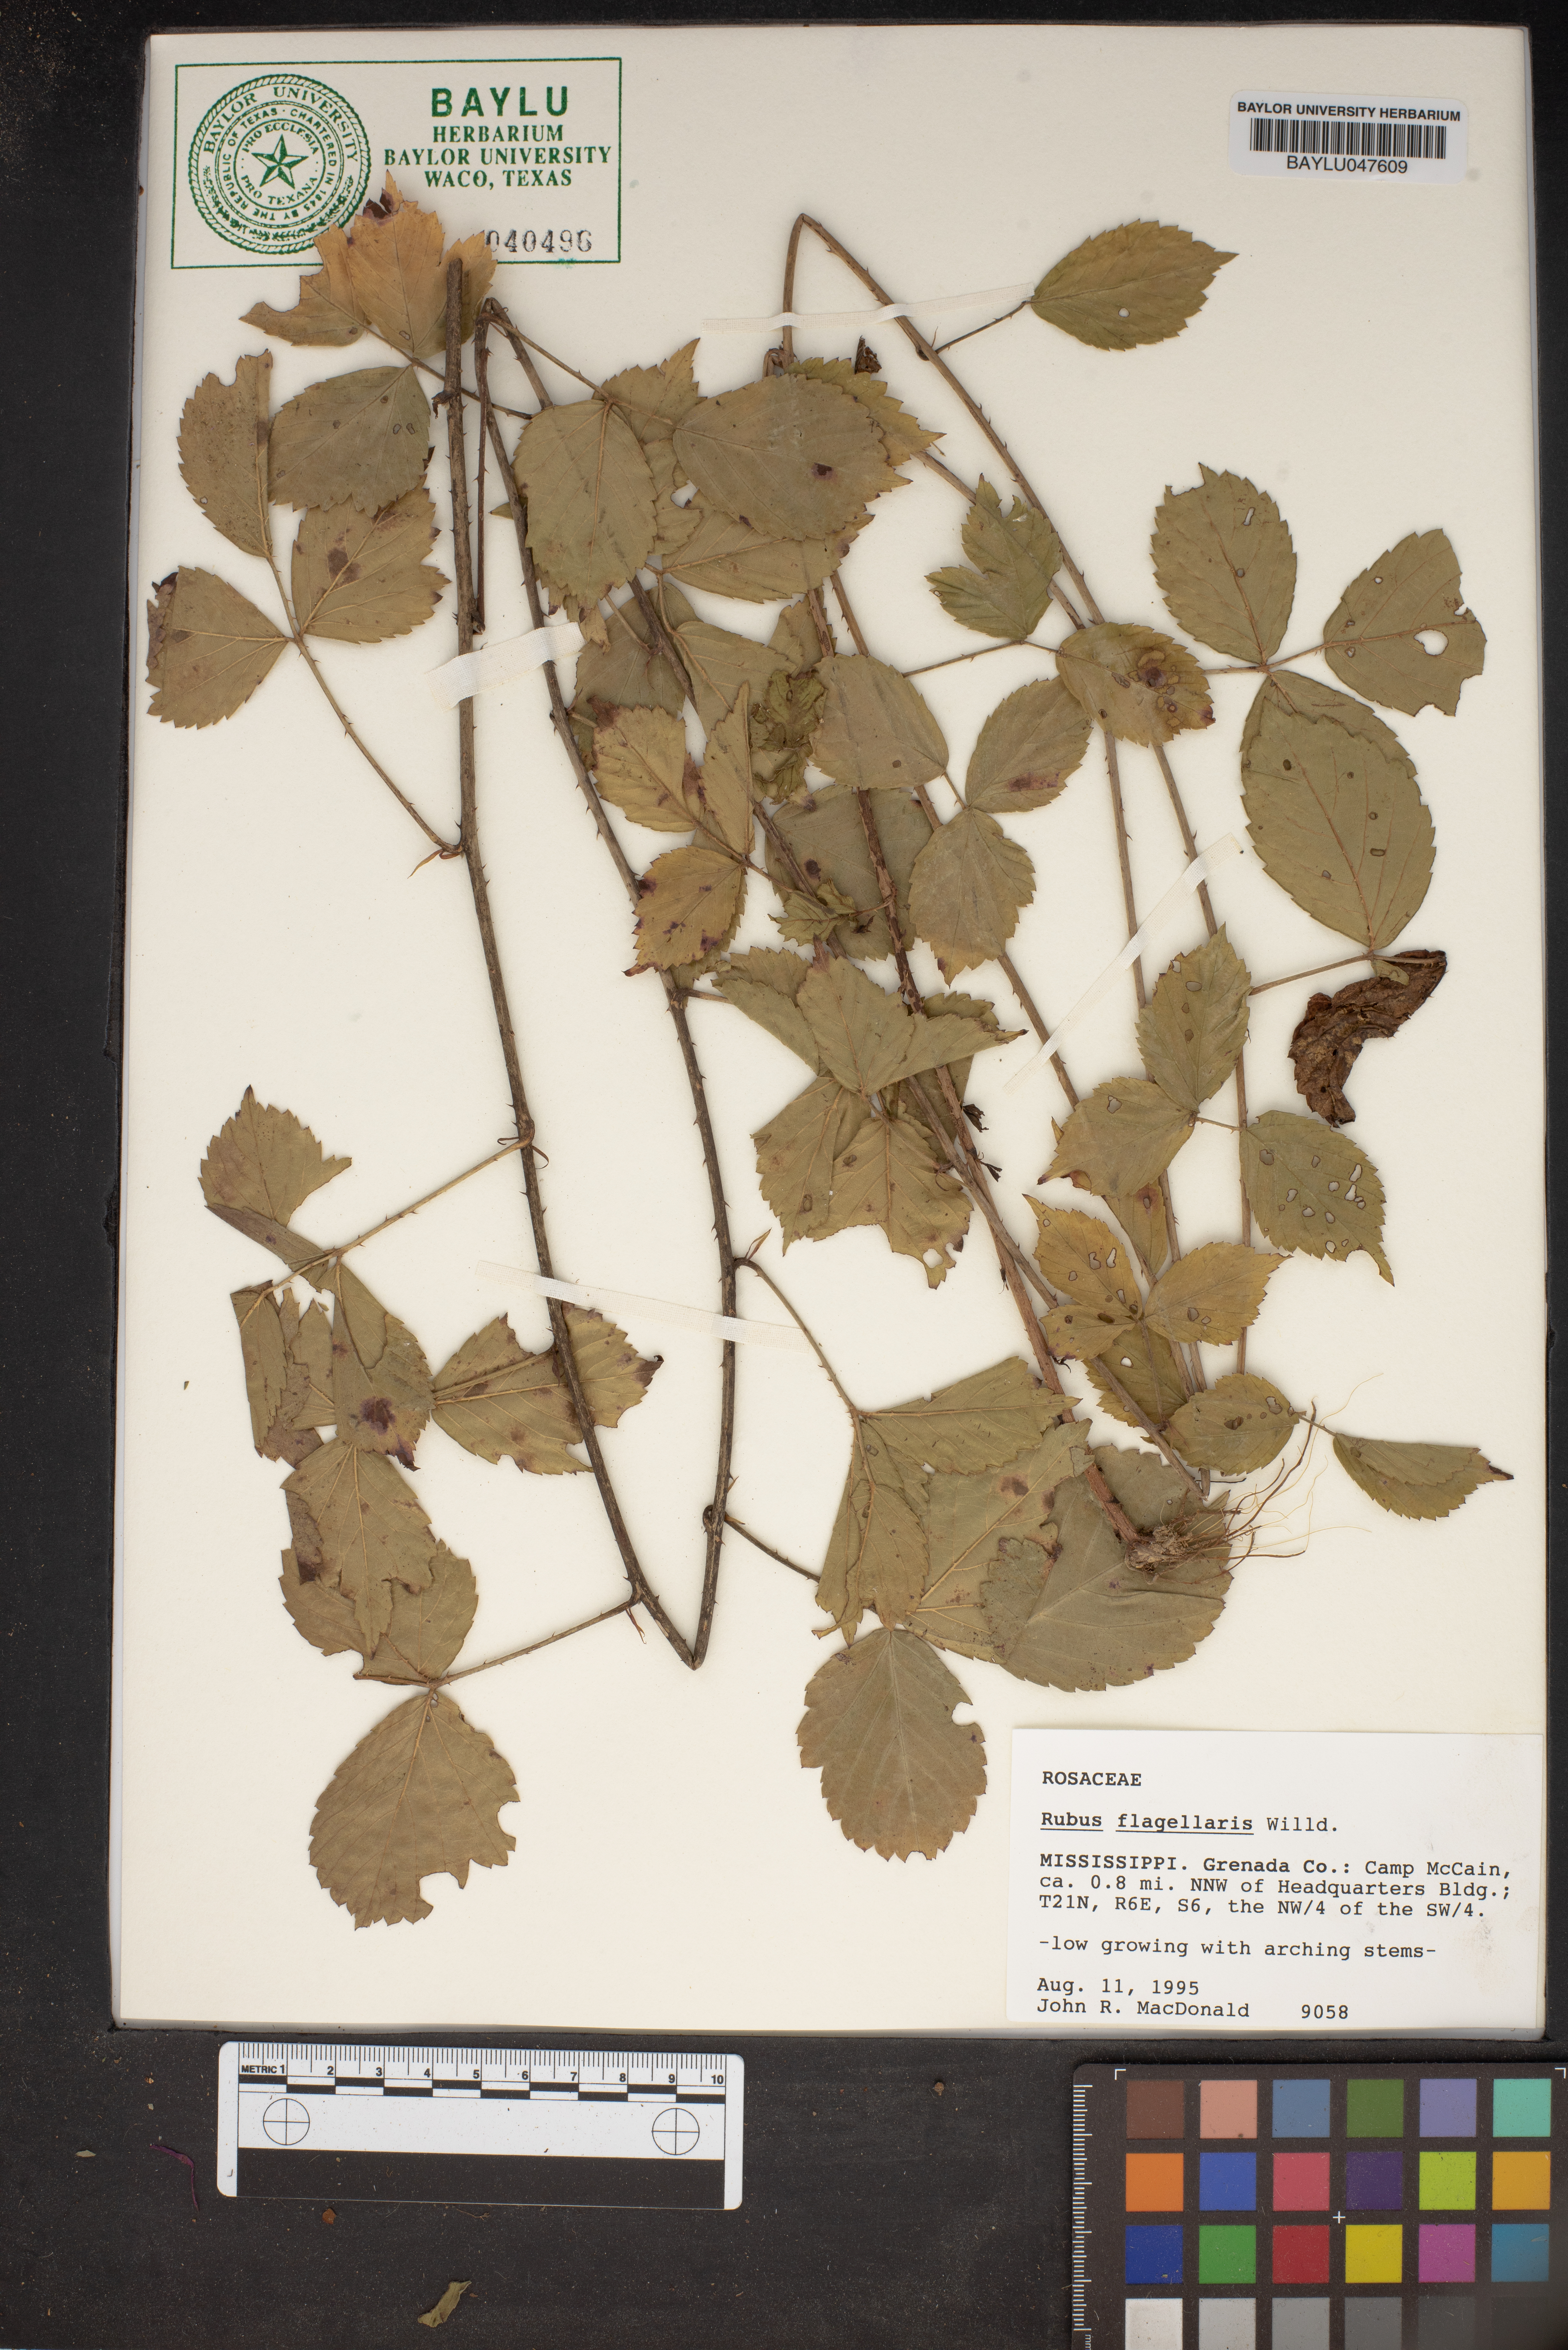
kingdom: Plantae
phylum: Tracheophyta
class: Magnoliopsida
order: Rosales
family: Rosaceae
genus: Rubus
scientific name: Rubus flagellaris
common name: American dewberry
